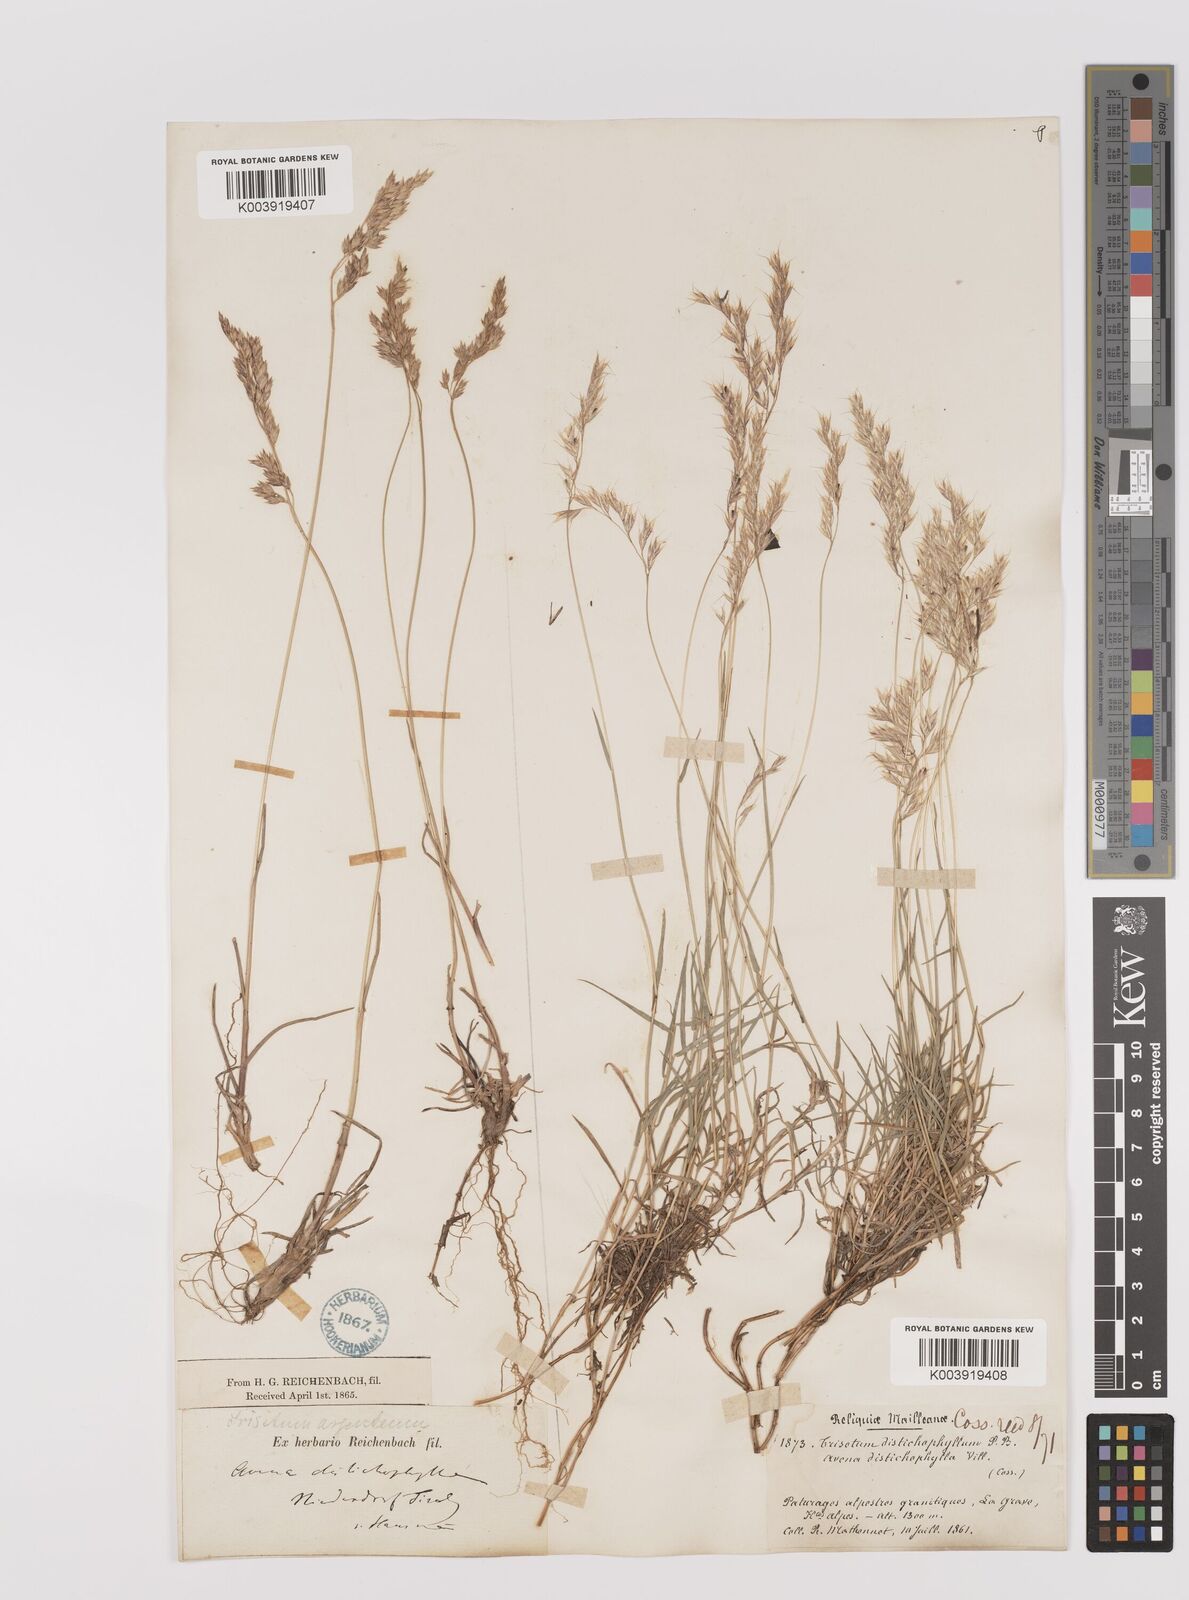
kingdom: Plantae
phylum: Tracheophyta
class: Liliopsida
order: Poales
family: Poaceae
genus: Acrospelion
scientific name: Acrospelion distichophyllum
